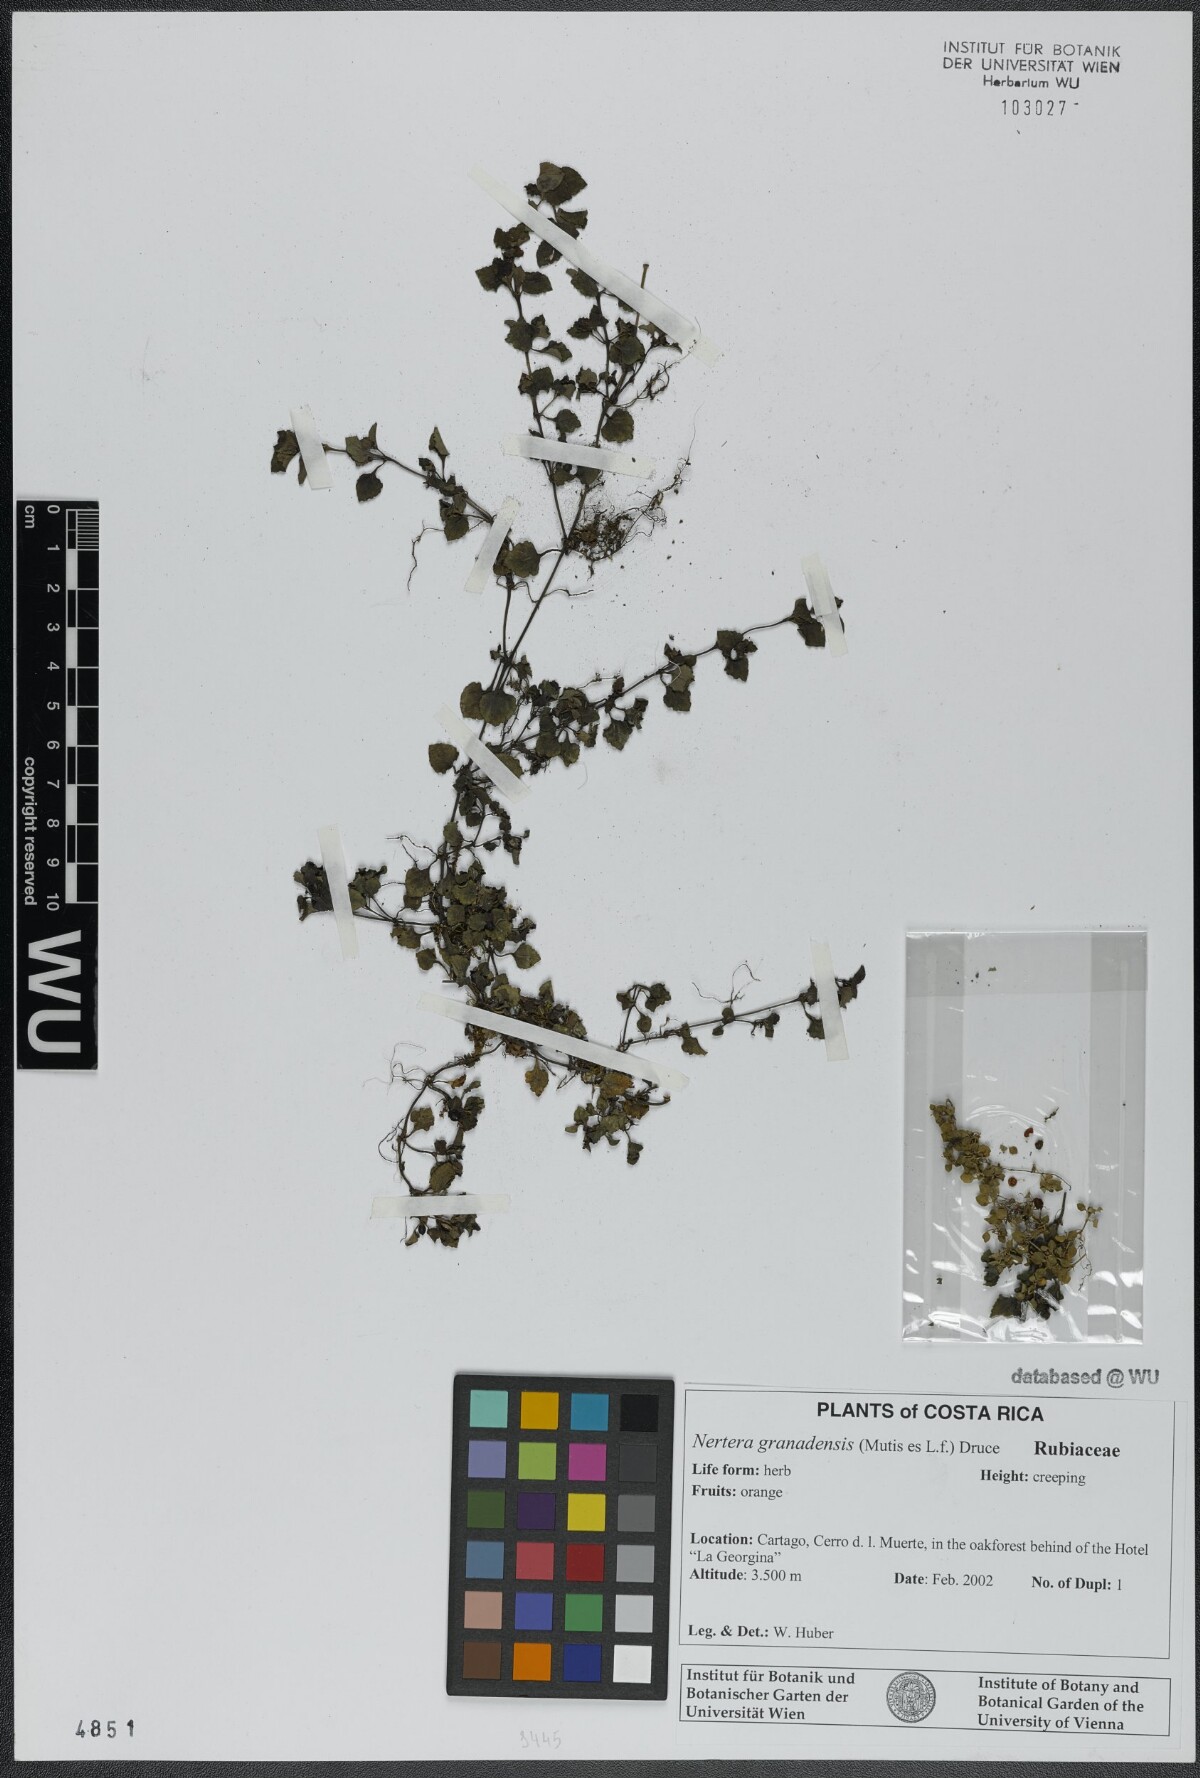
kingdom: Plantae
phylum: Tracheophyta
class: Magnoliopsida
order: Gentianales
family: Rubiaceae
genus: Nertera
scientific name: Nertera granadensis
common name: Beadplant
